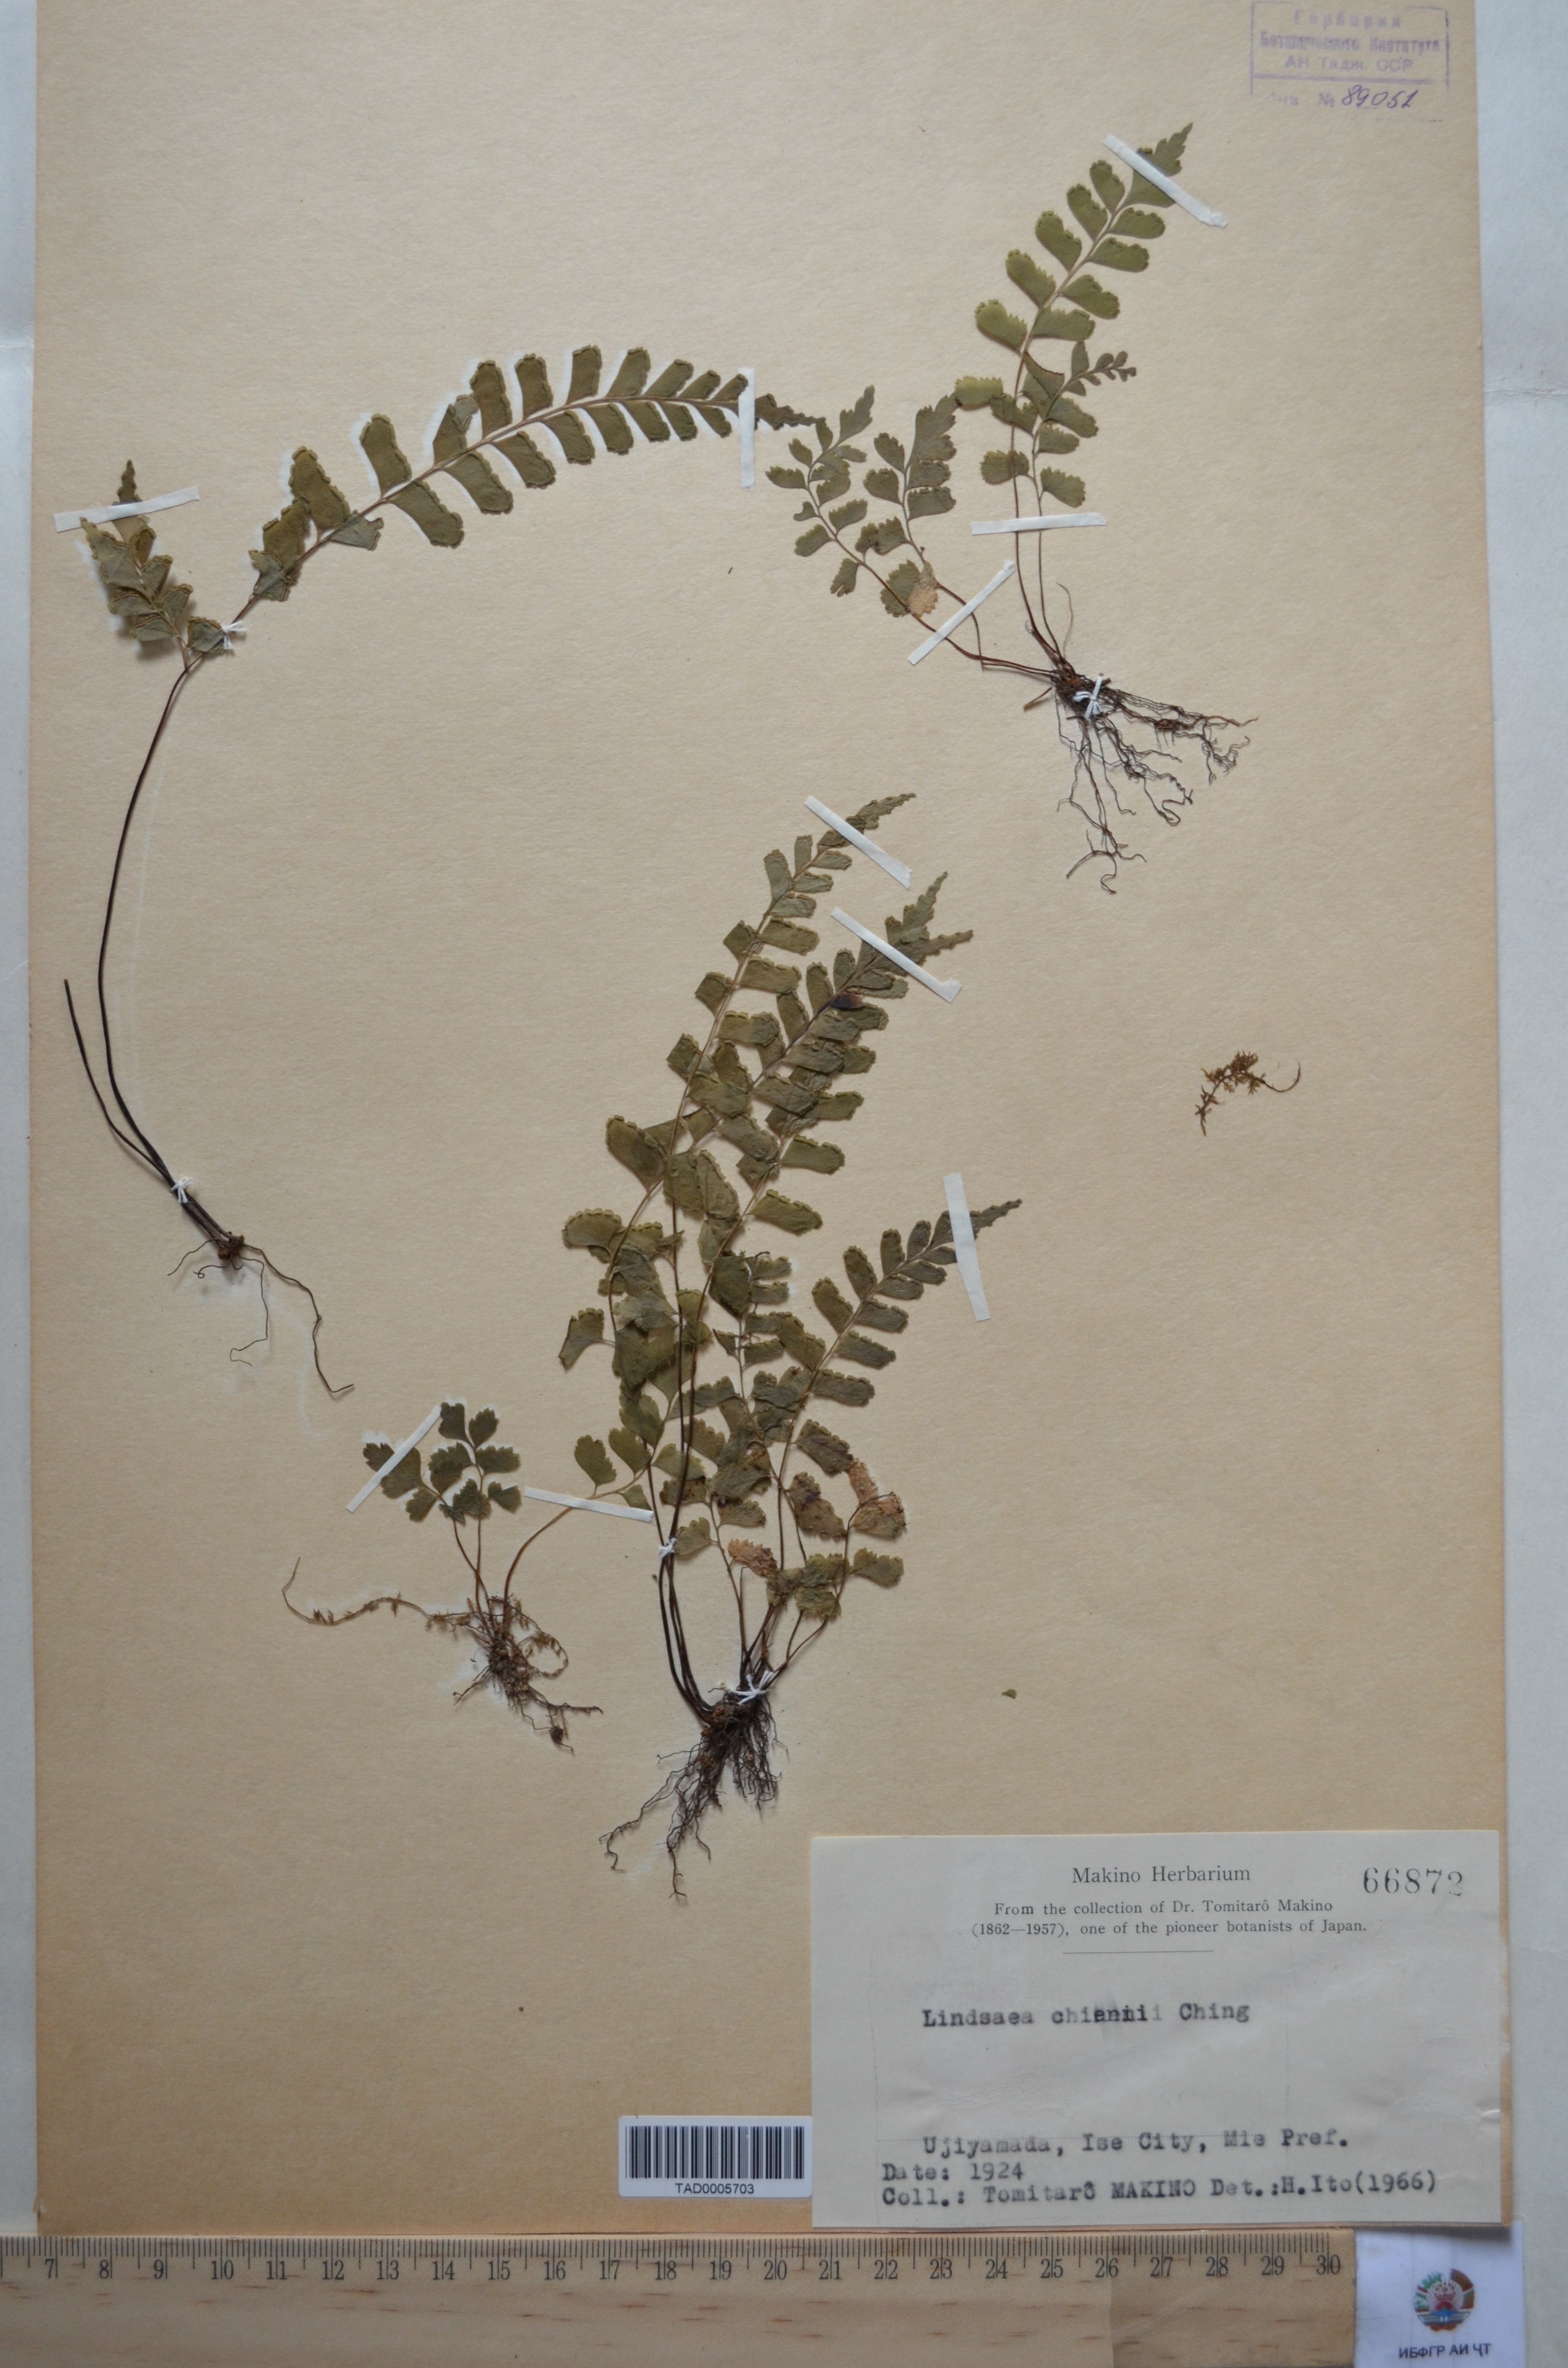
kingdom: Plantae
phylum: Tracheophyta
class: Polypodiopsida
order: Polypodiales
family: Lindsaeaceae
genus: Lindsaea
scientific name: Lindsaea chienii
